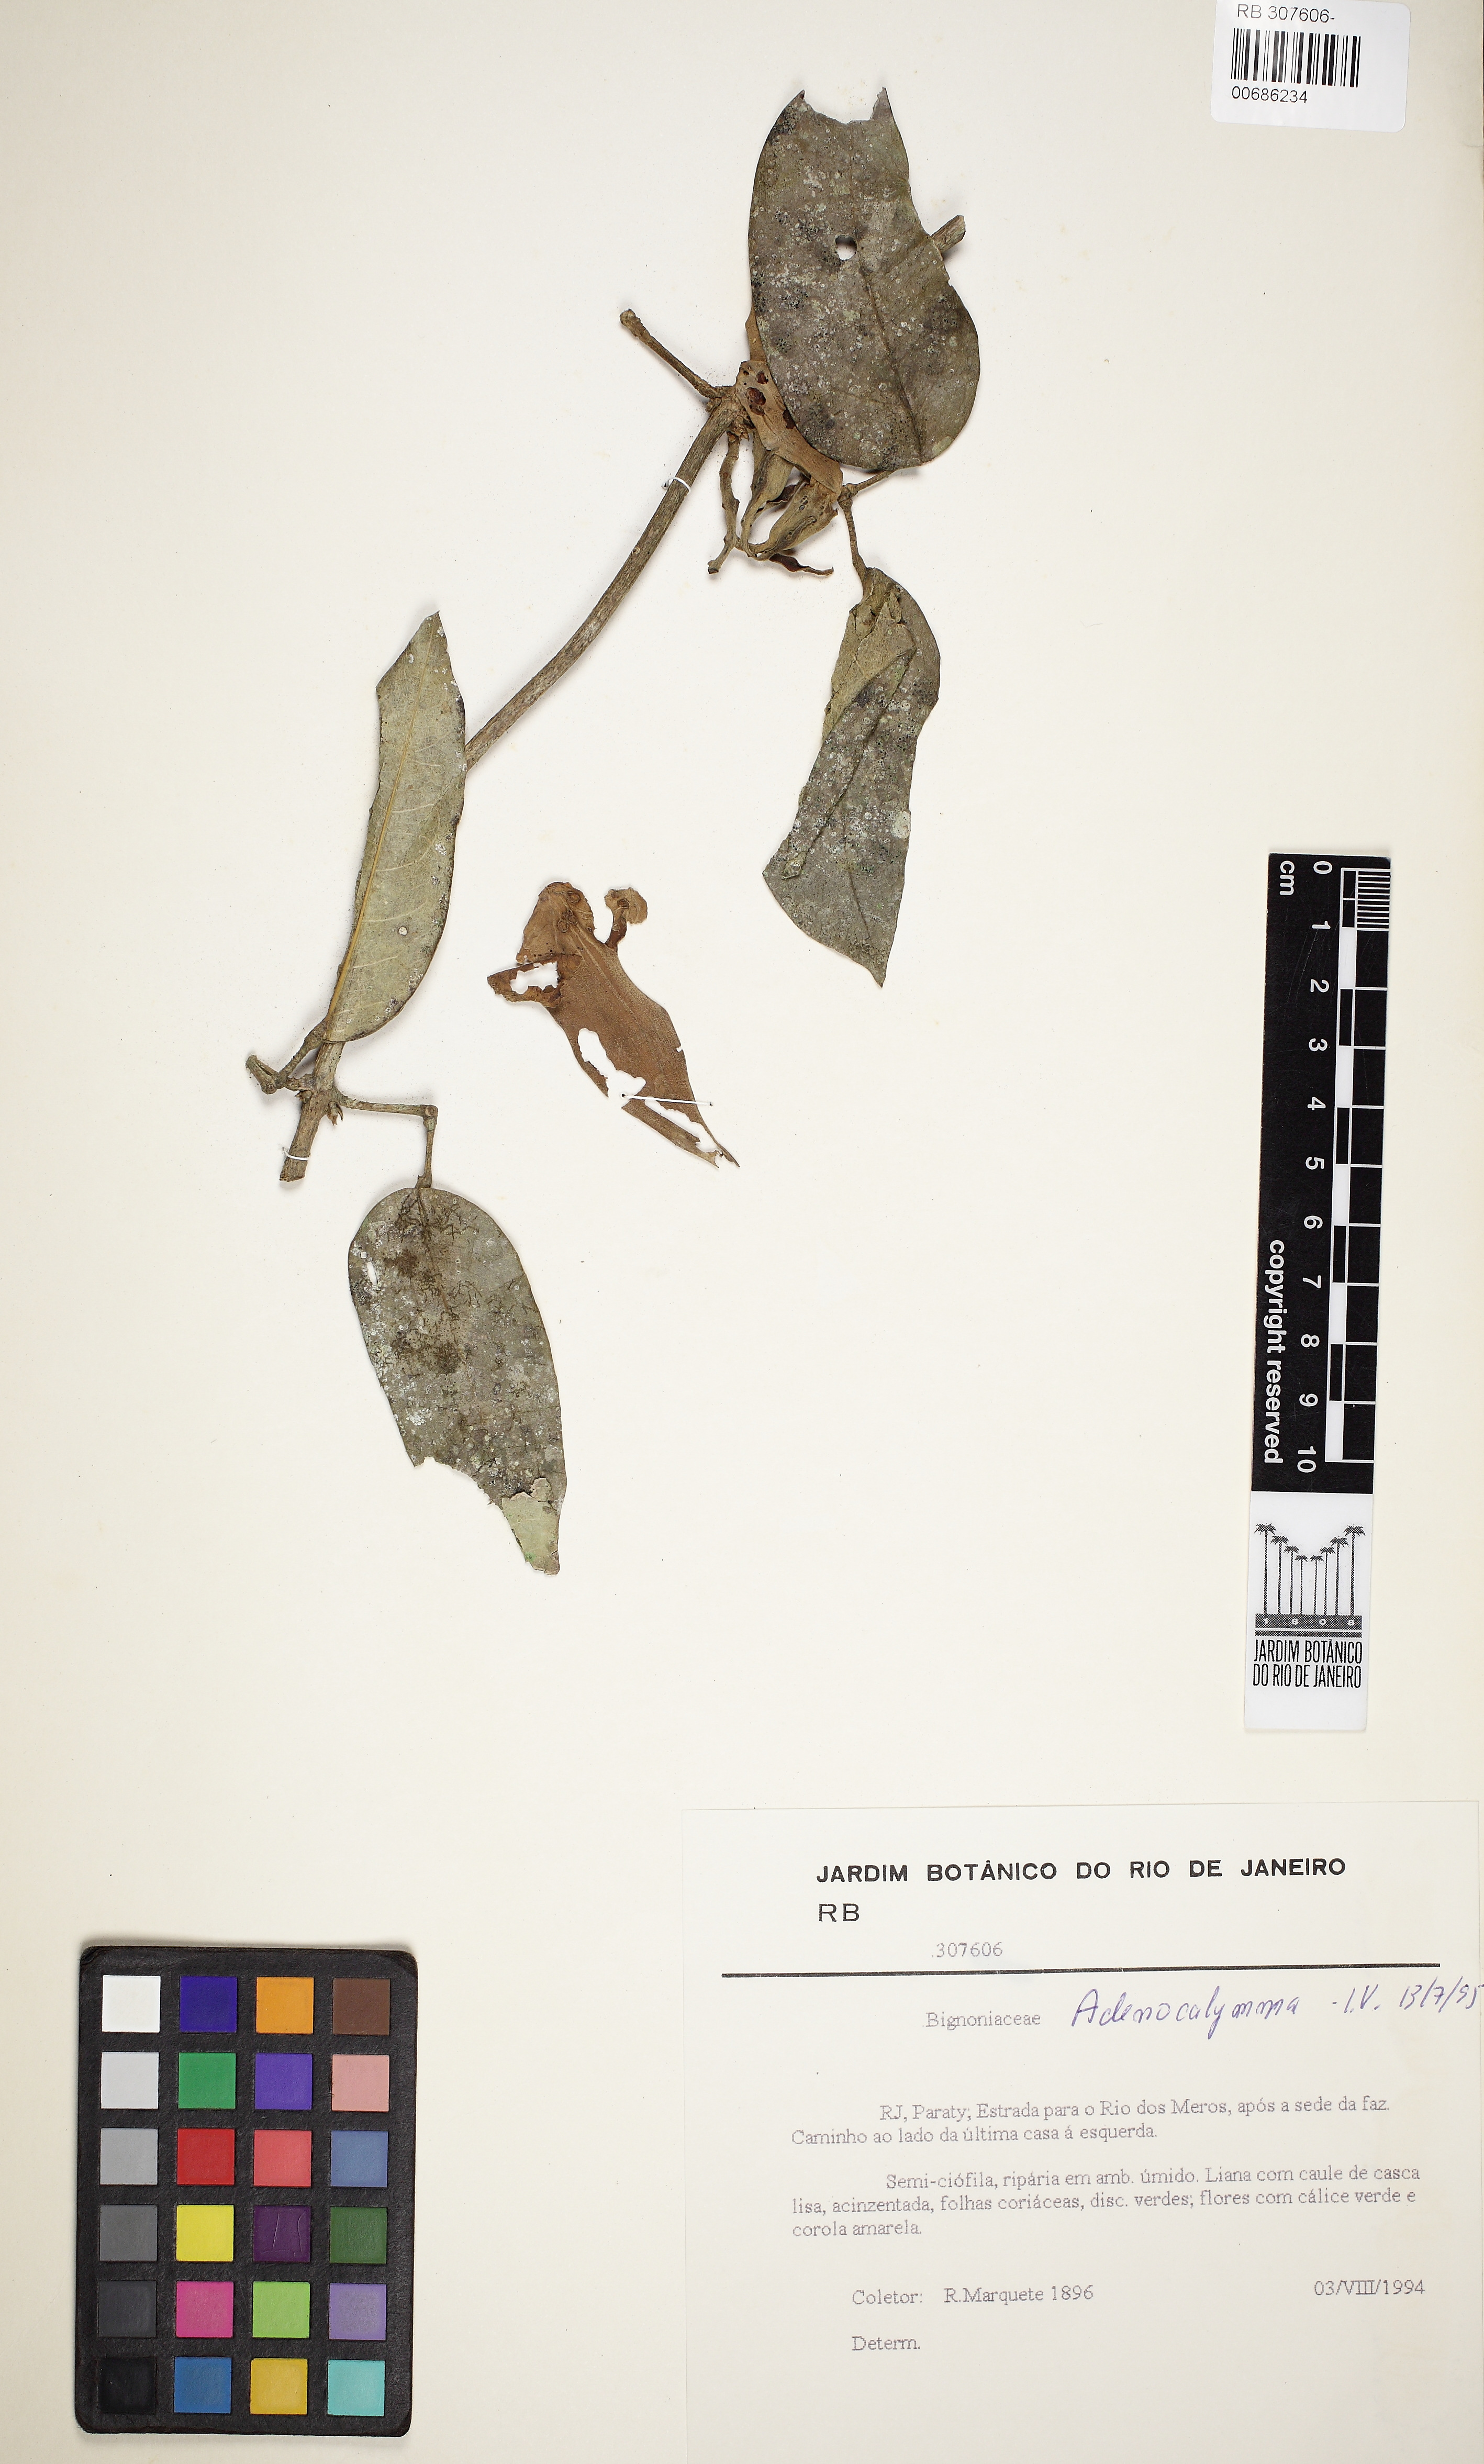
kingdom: Plantae
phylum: Tracheophyta
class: Magnoliopsida
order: Lamiales
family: Bignoniaceae
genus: Adenocalymma
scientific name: Adenocalymma bracteatum
